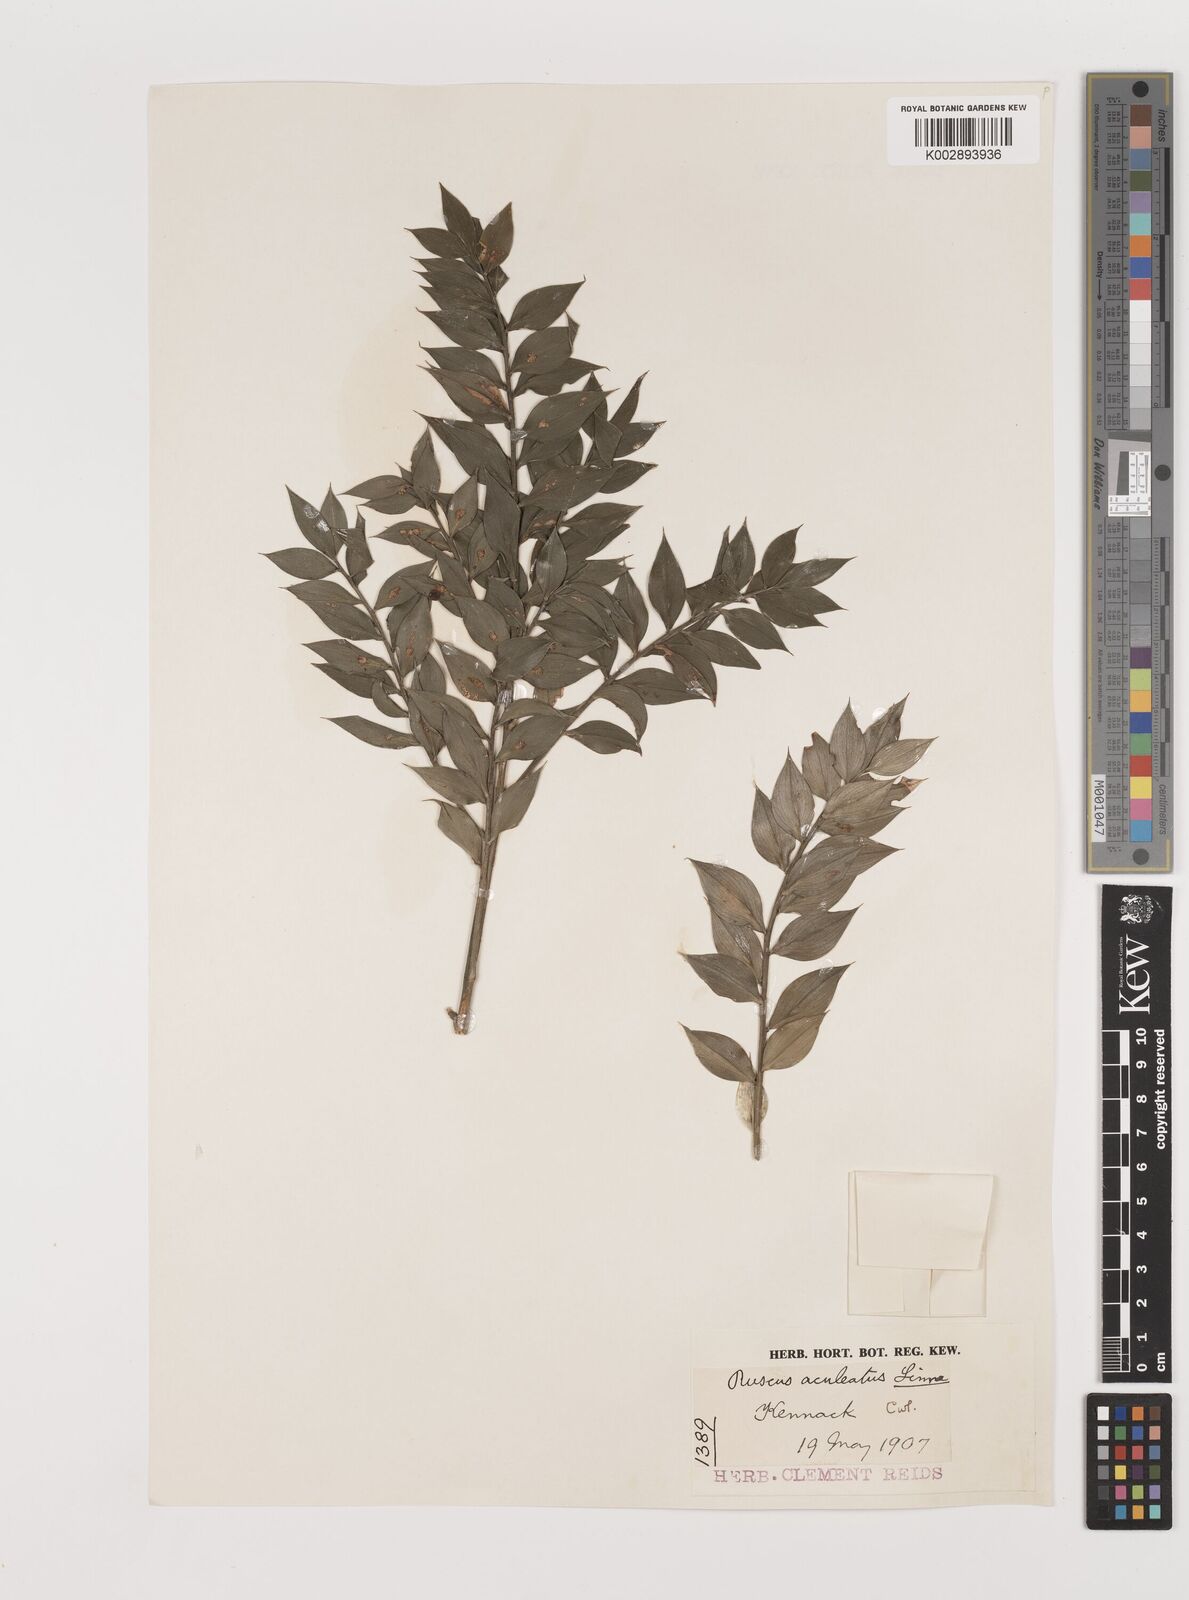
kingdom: Plantae
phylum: Tracheophyta
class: Liliopsida
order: Asparagales
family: Asparagaceae
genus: Ruscus
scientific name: Ruscus aculeatus
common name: Butcher's-broom
